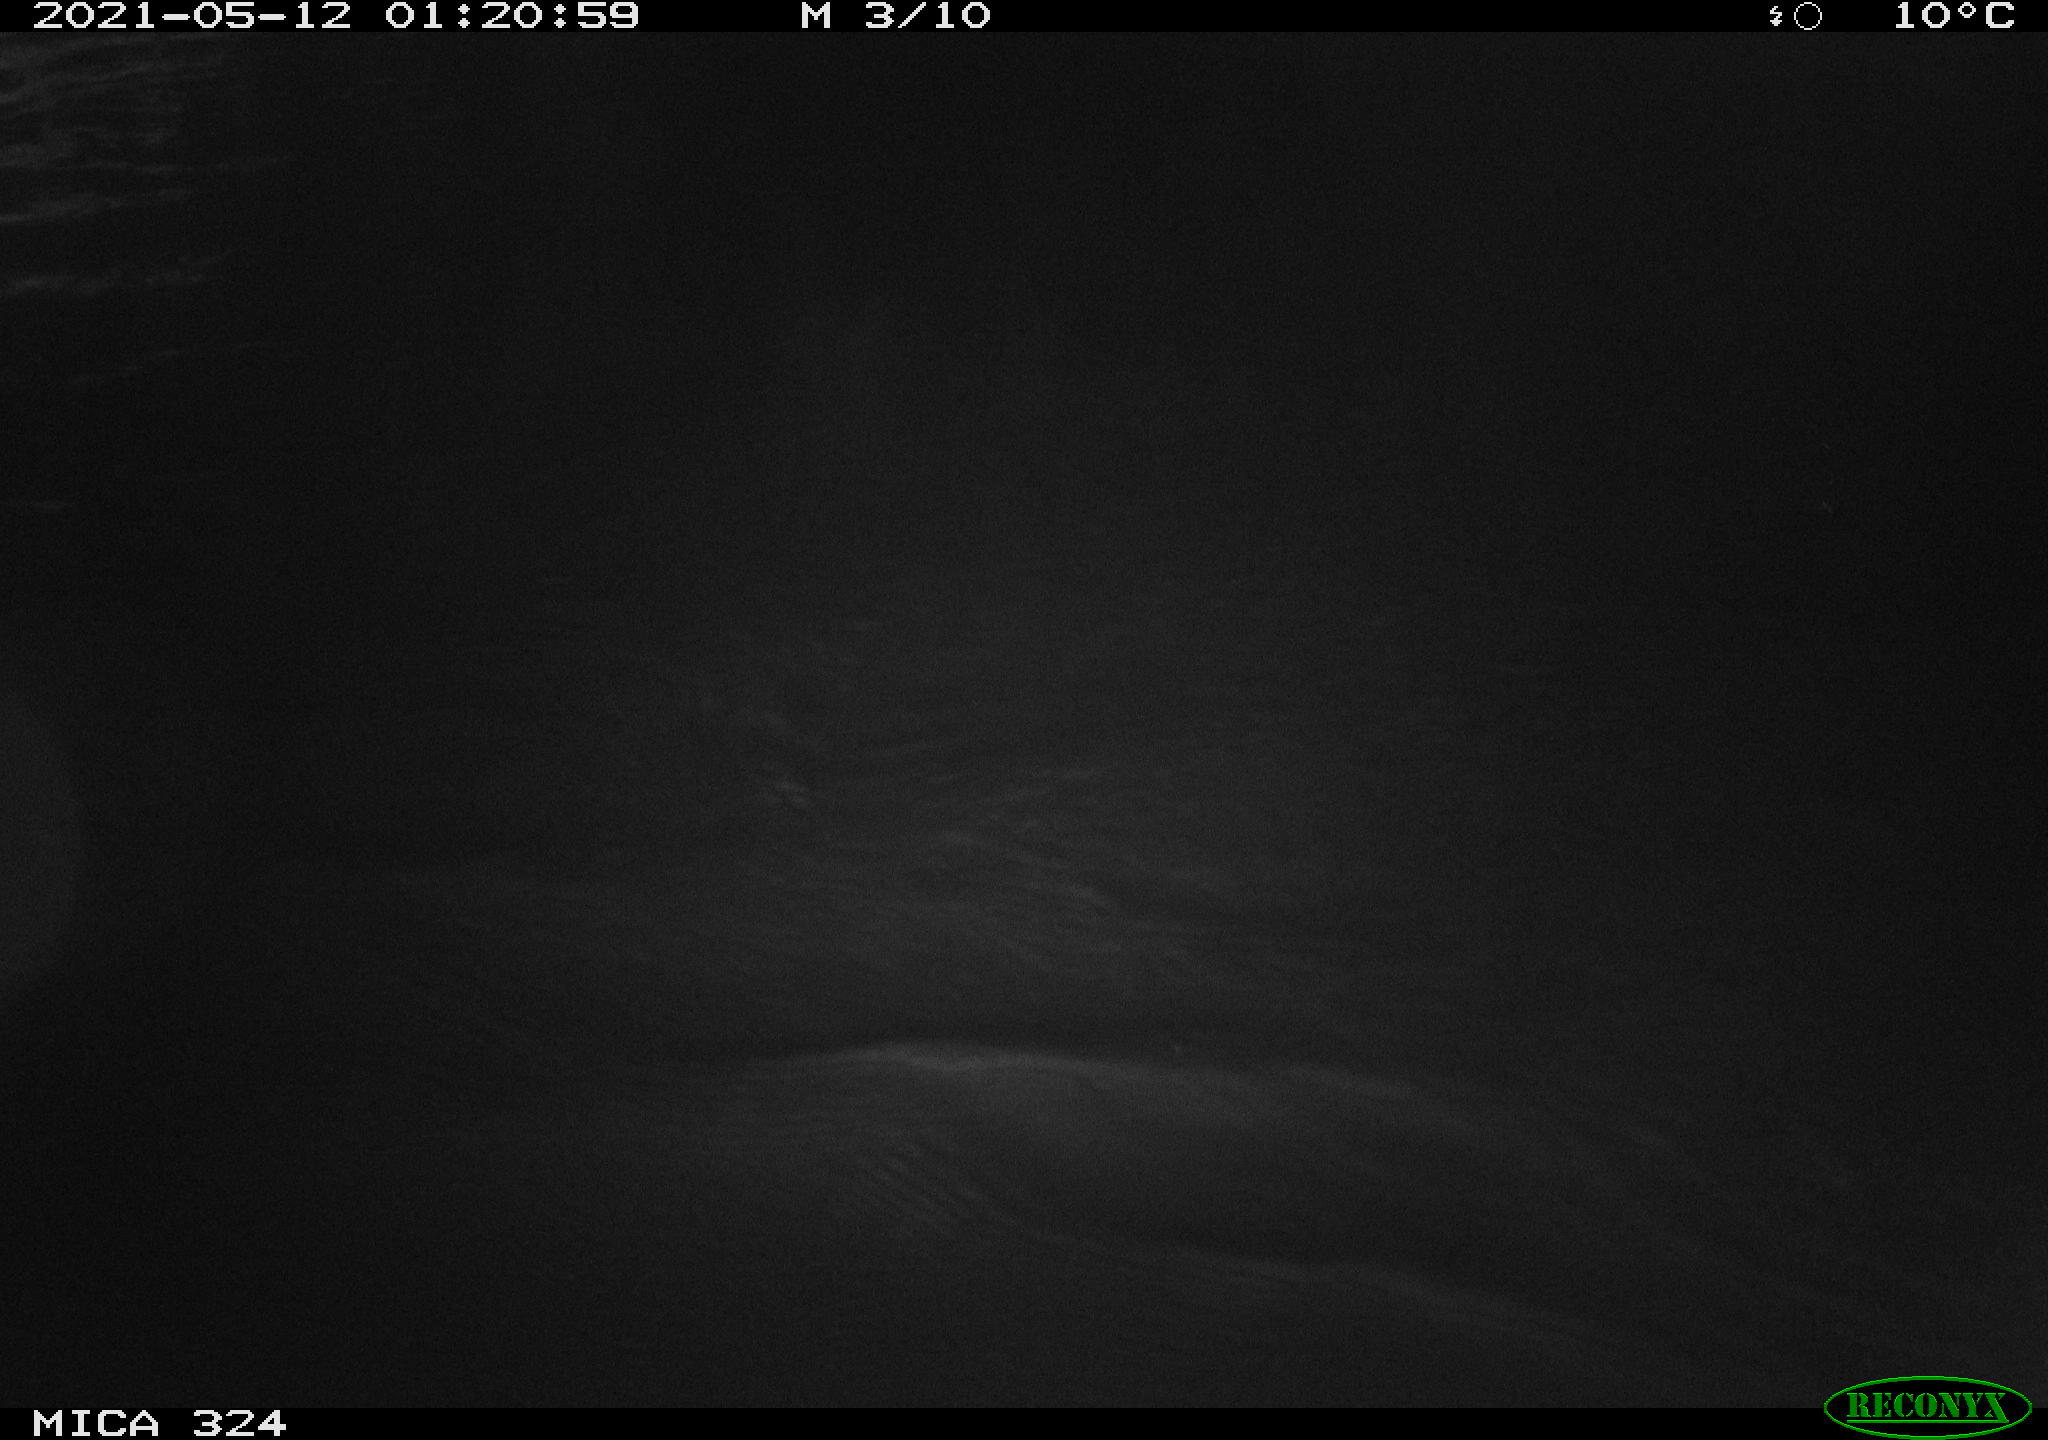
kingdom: Animalia
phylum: Chordata
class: Aves
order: Anseriformes
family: Anatidae
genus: Anas
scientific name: Anas platyrhynchos
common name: Mallard
